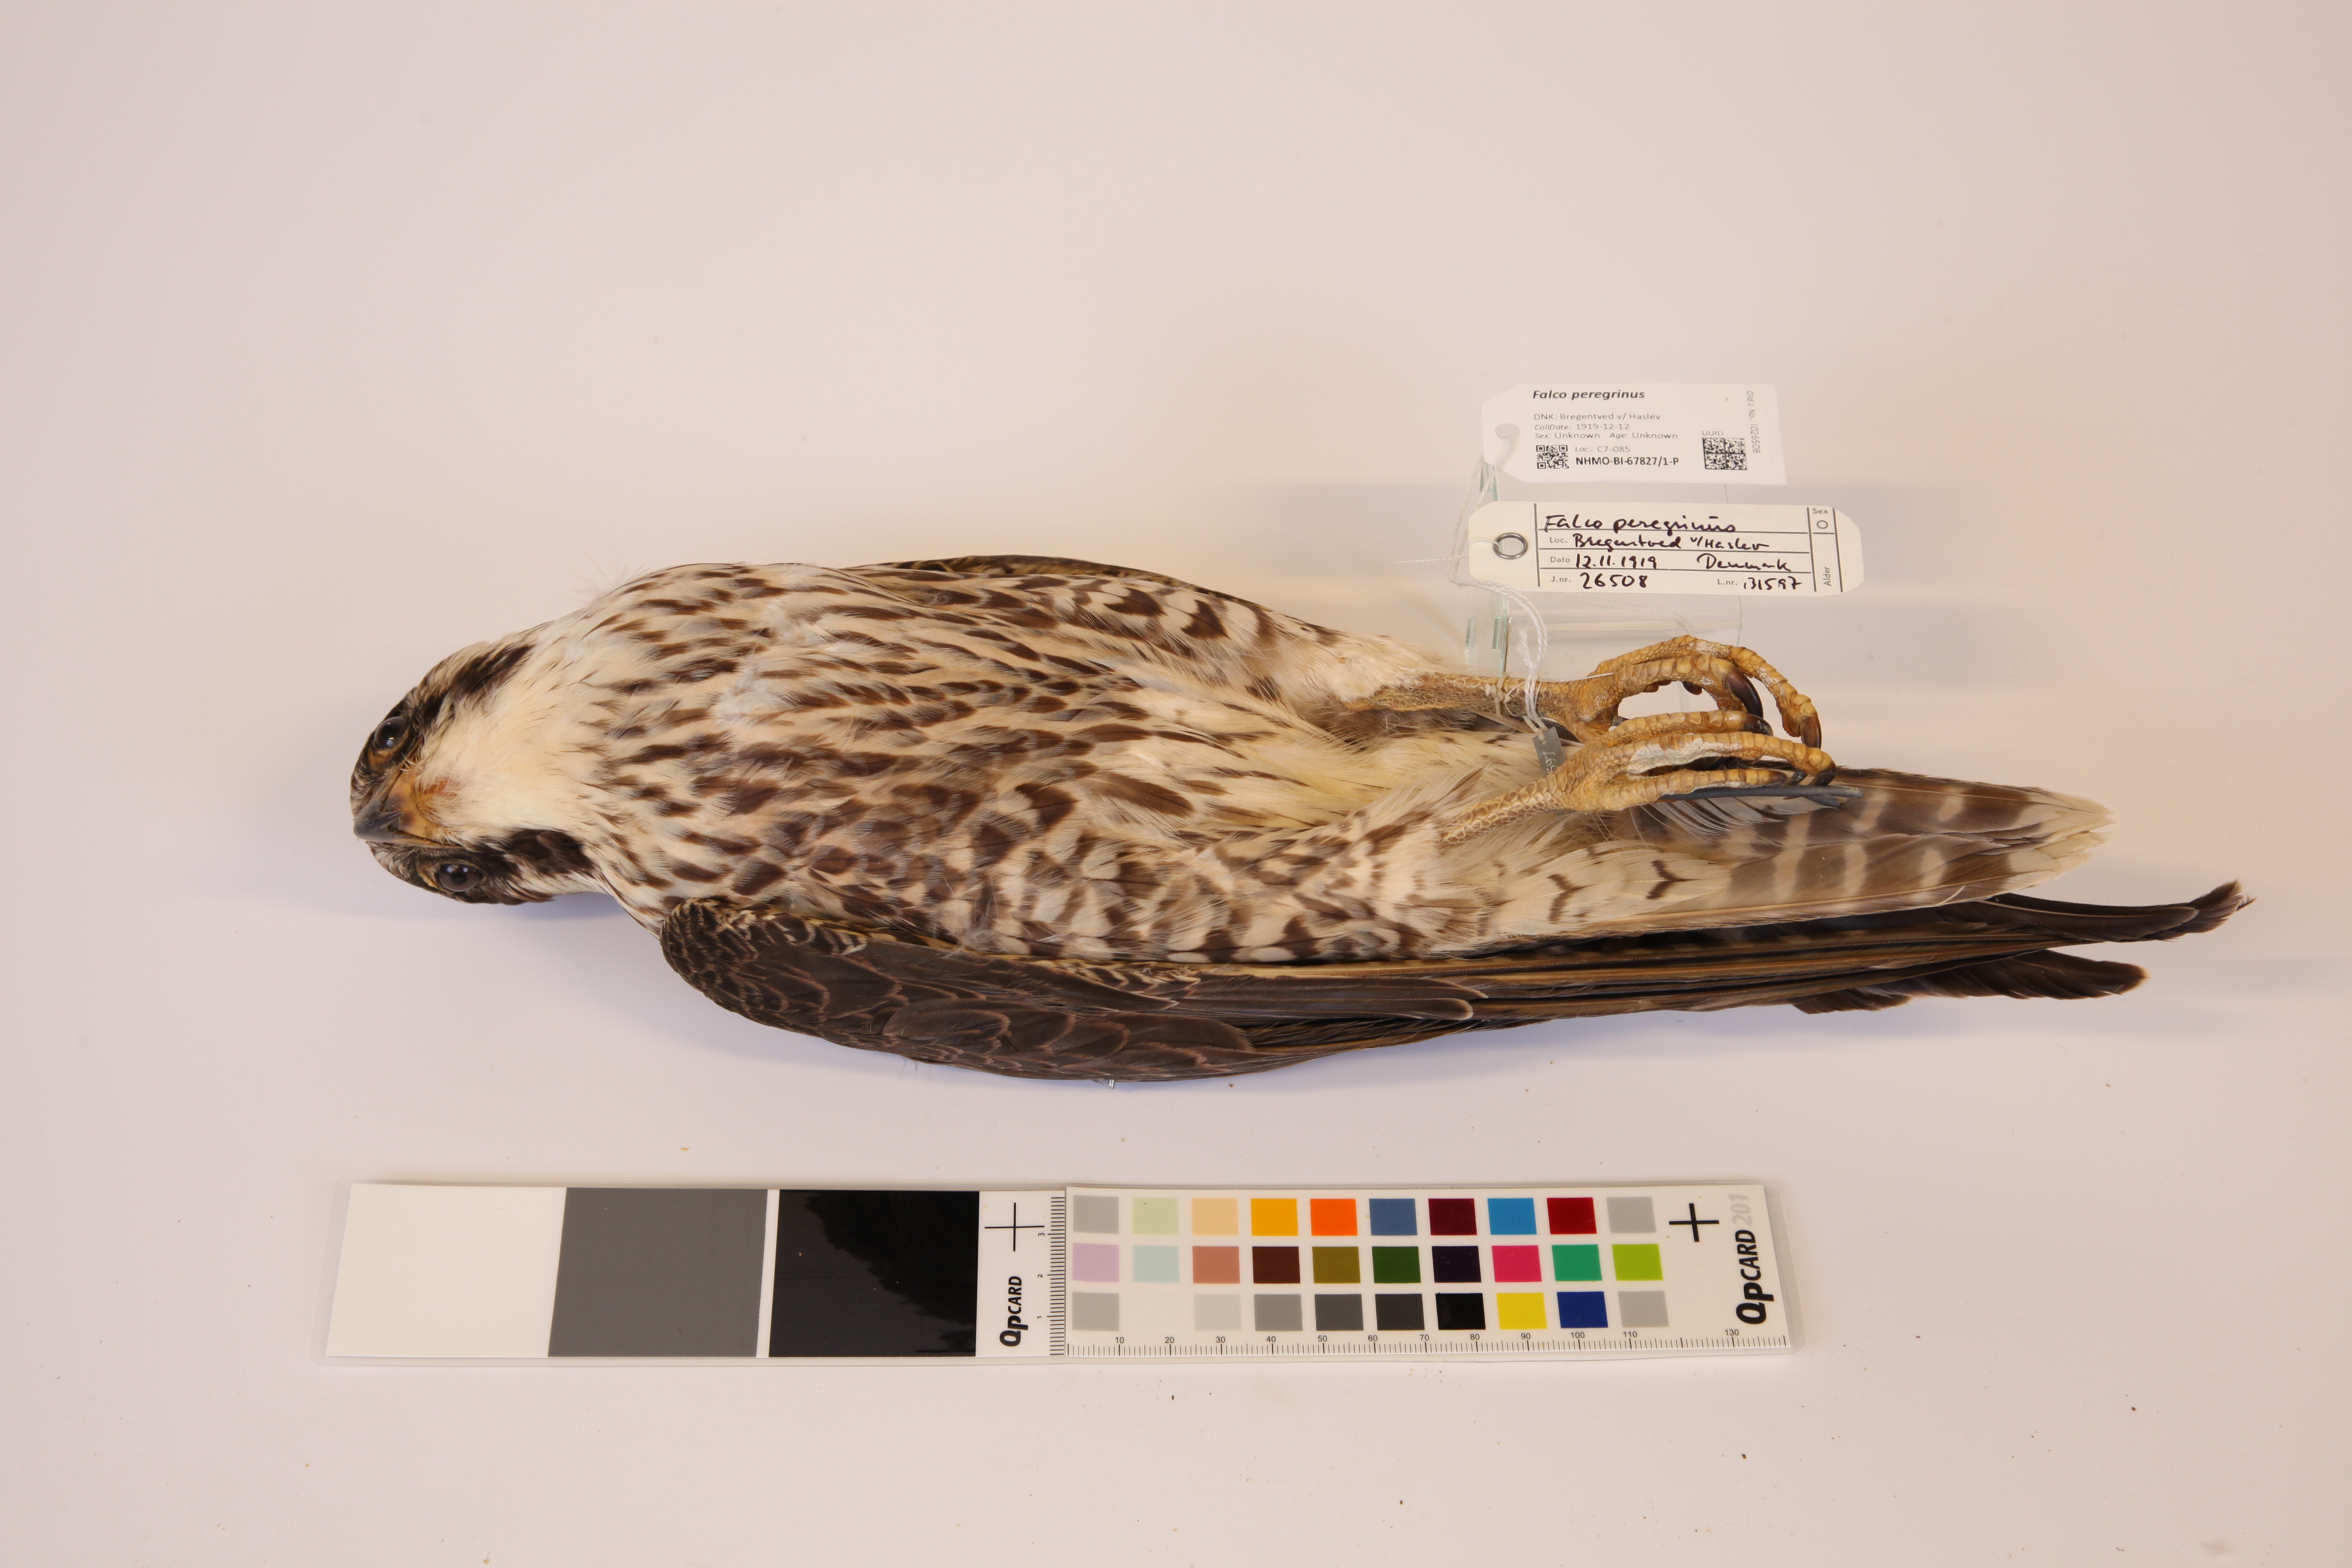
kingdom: Animalia
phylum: Chordata
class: Aves
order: Falconiformes
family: Falconidae
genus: Falco
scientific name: Falco peregrinus
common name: Peregrine falcon
